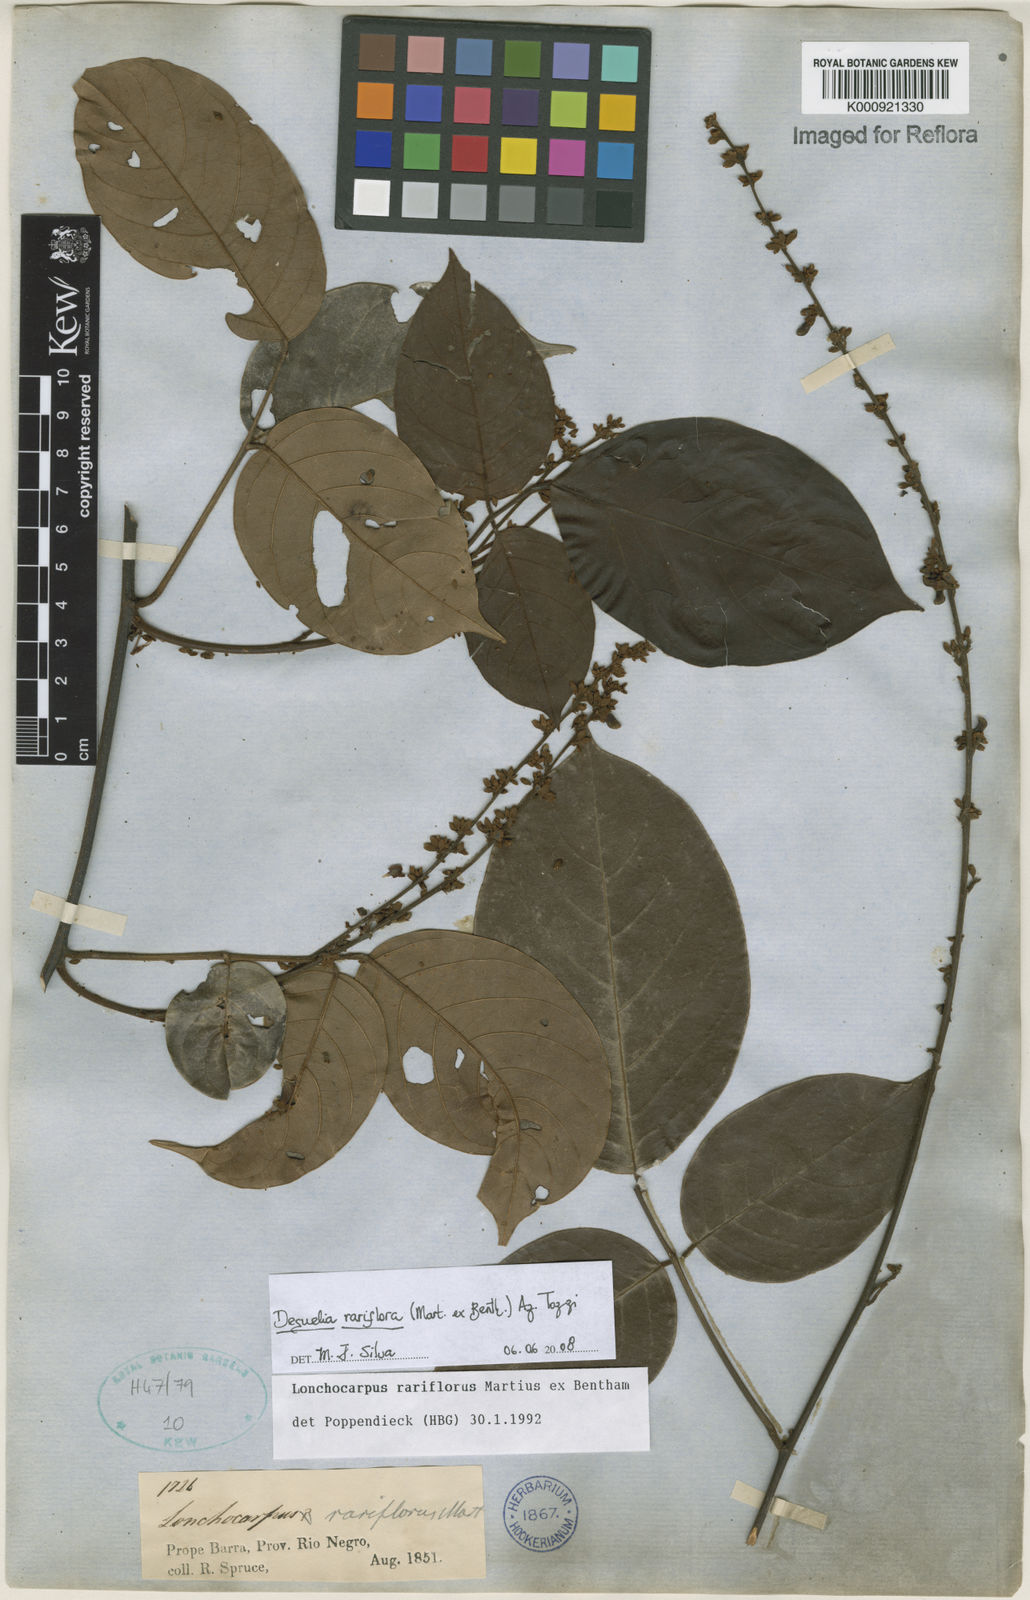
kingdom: Plantae
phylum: Tracheophyta
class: Magnoliopsida
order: Fabales
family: Fabaceae
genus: Deguelia
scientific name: Deguelia
